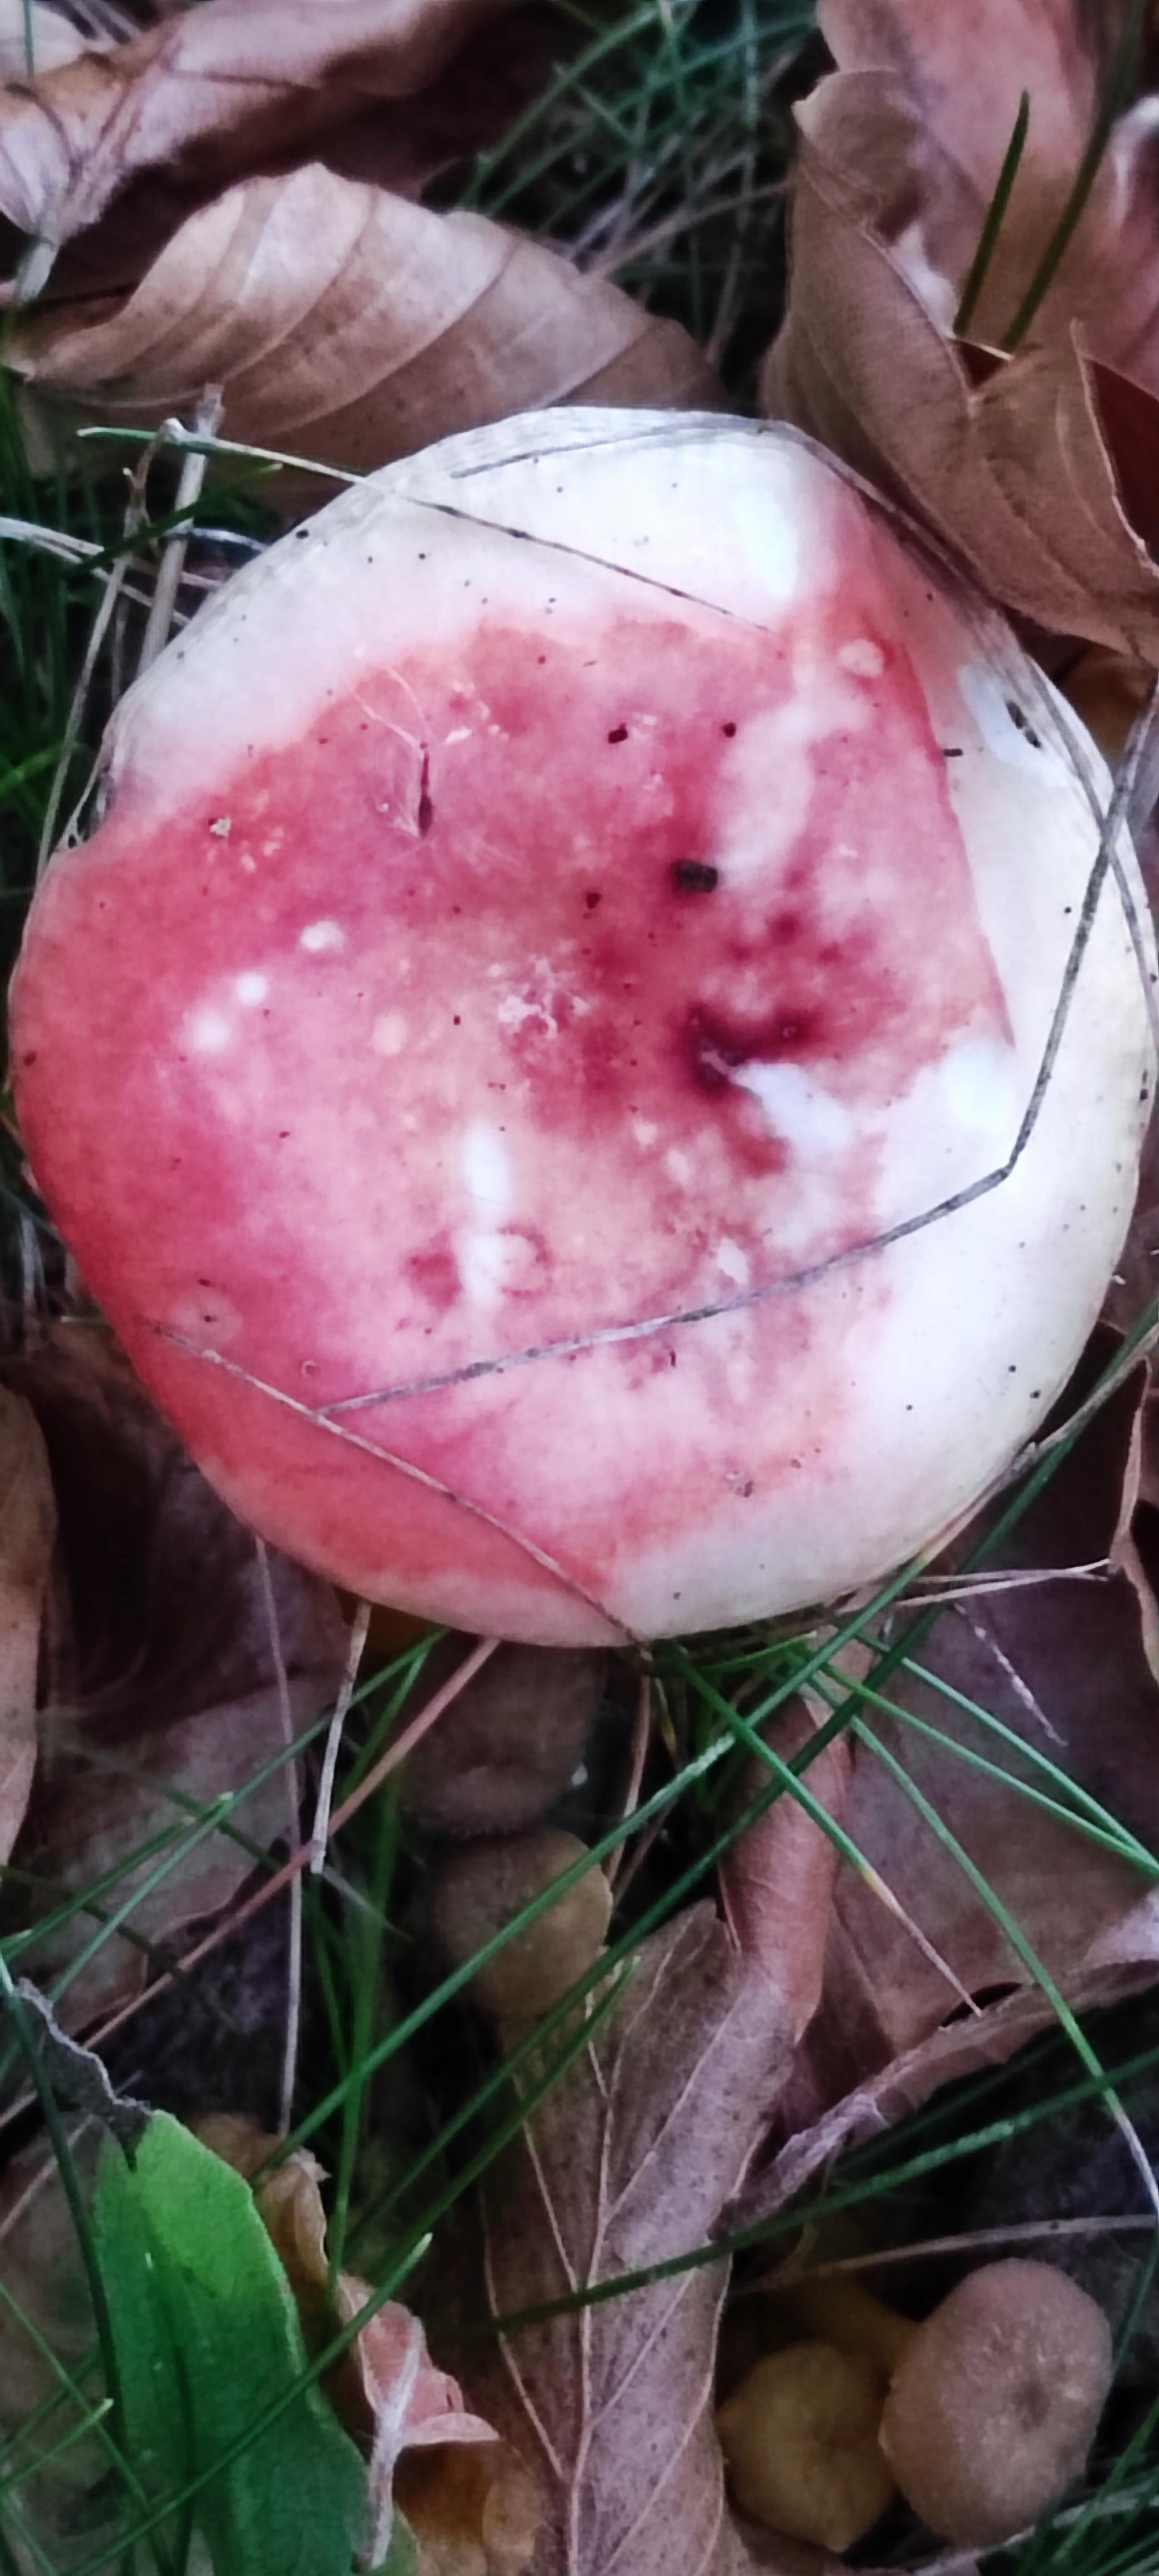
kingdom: Fungi
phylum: Basidiomycota
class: Agaricomycetes
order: Russulales
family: Russulaceae
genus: Russula
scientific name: Russula
